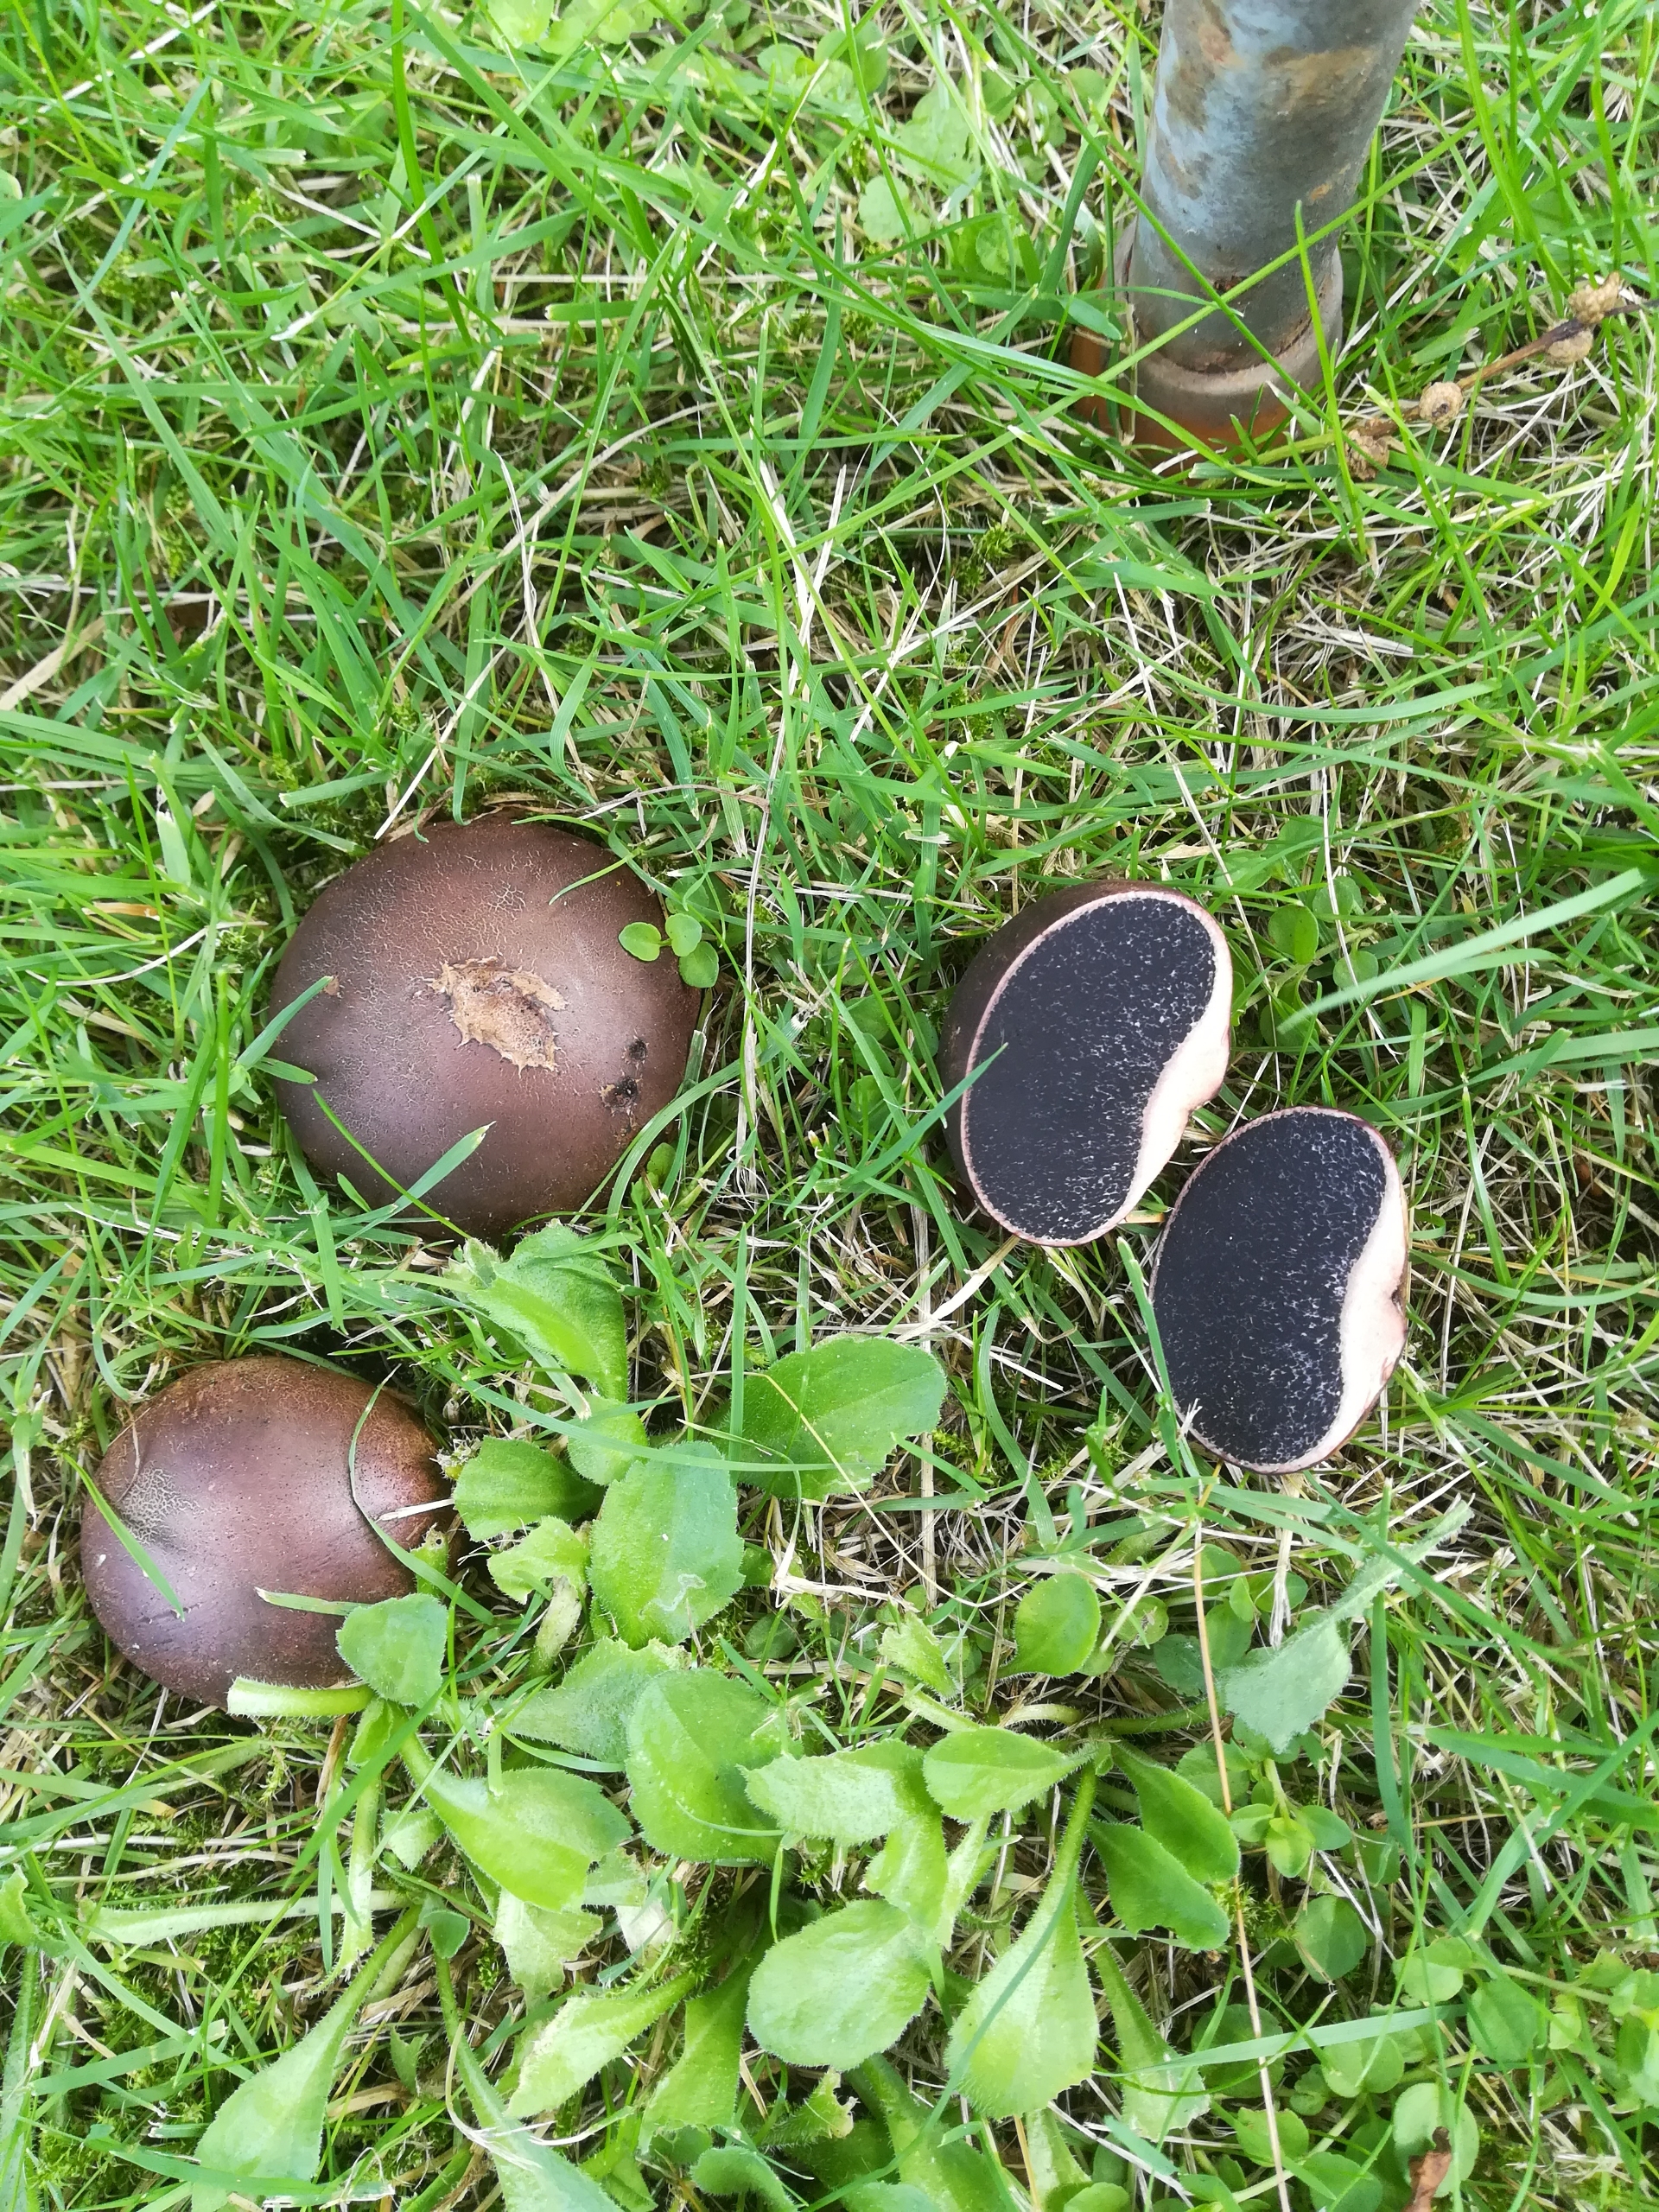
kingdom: Fungi
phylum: Basidiomycota
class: Agaricomycetes
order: Boletales
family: Sclerodermataceae
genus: Scleroderma
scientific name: Scleroderma cepa
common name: Rødbrun bruskbold
